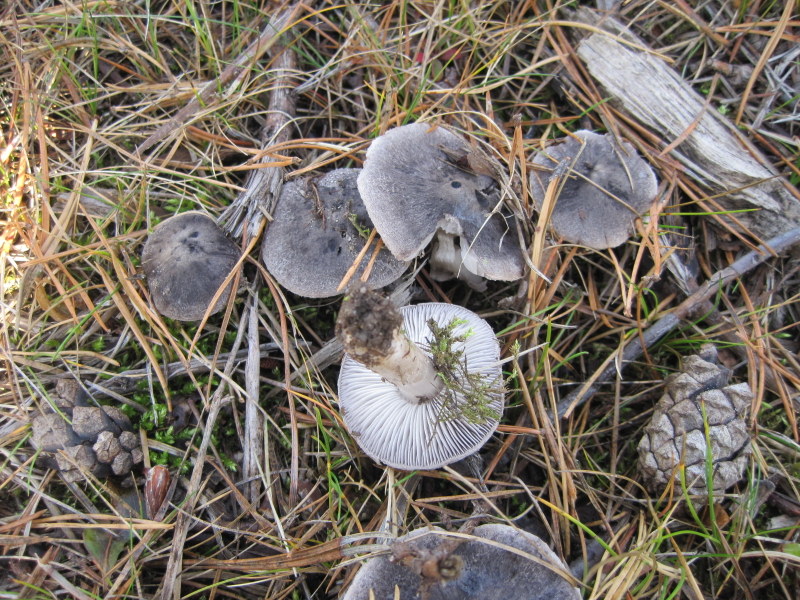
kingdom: Fungi
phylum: Basidiomycota
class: Agaricomycetes
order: Agaricales
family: Tricholomataceae
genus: Tricholoma
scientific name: Tricholoma terreum
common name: jordfarvet ridderhat
